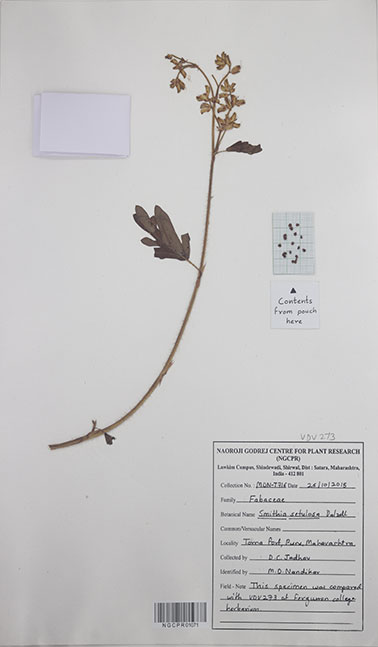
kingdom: Plantae
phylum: Tracheophyta
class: Magnoliopsida
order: Fabales
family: Fabaceae
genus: Smithia
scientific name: Smithia setulosa
